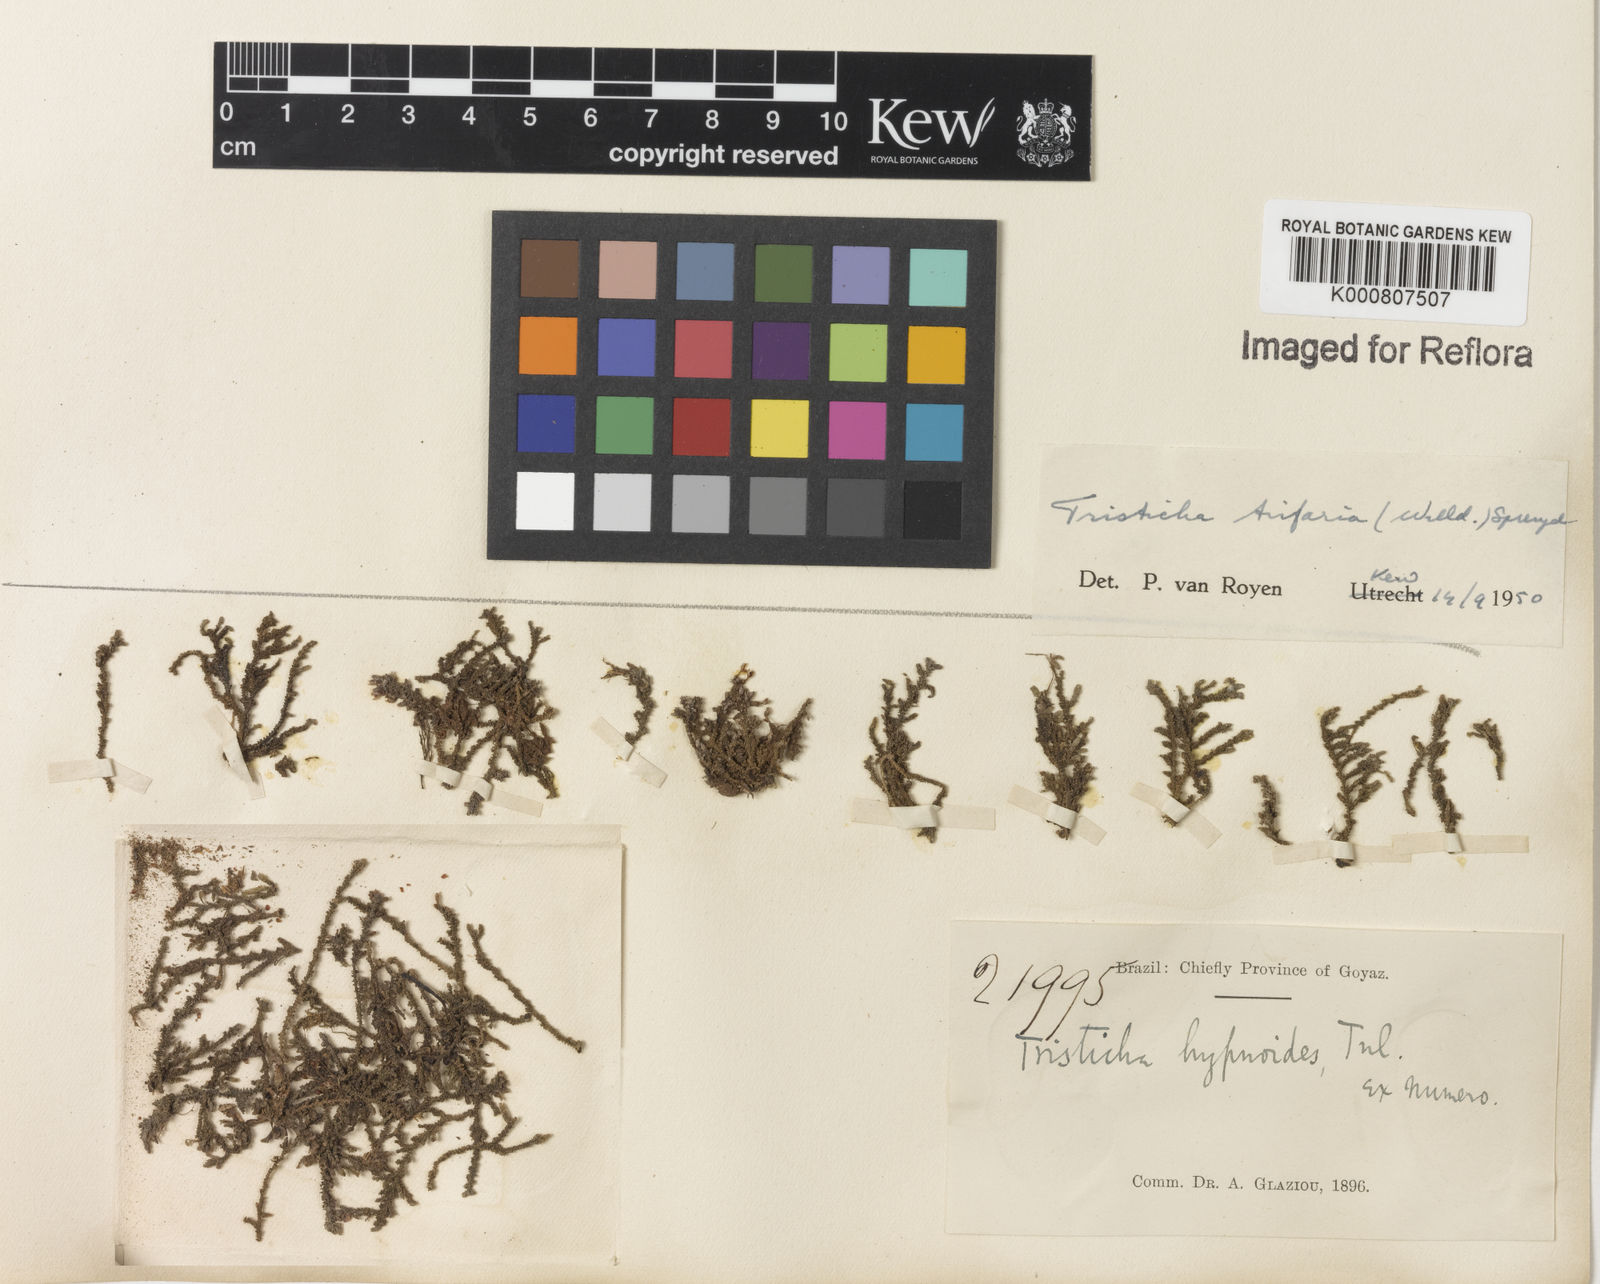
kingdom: Plantae
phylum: Tracheophyta
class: Magnoliopsida
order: Malpighiales
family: Podostemaceae
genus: Tristicha
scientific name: Tristicha trifaria
